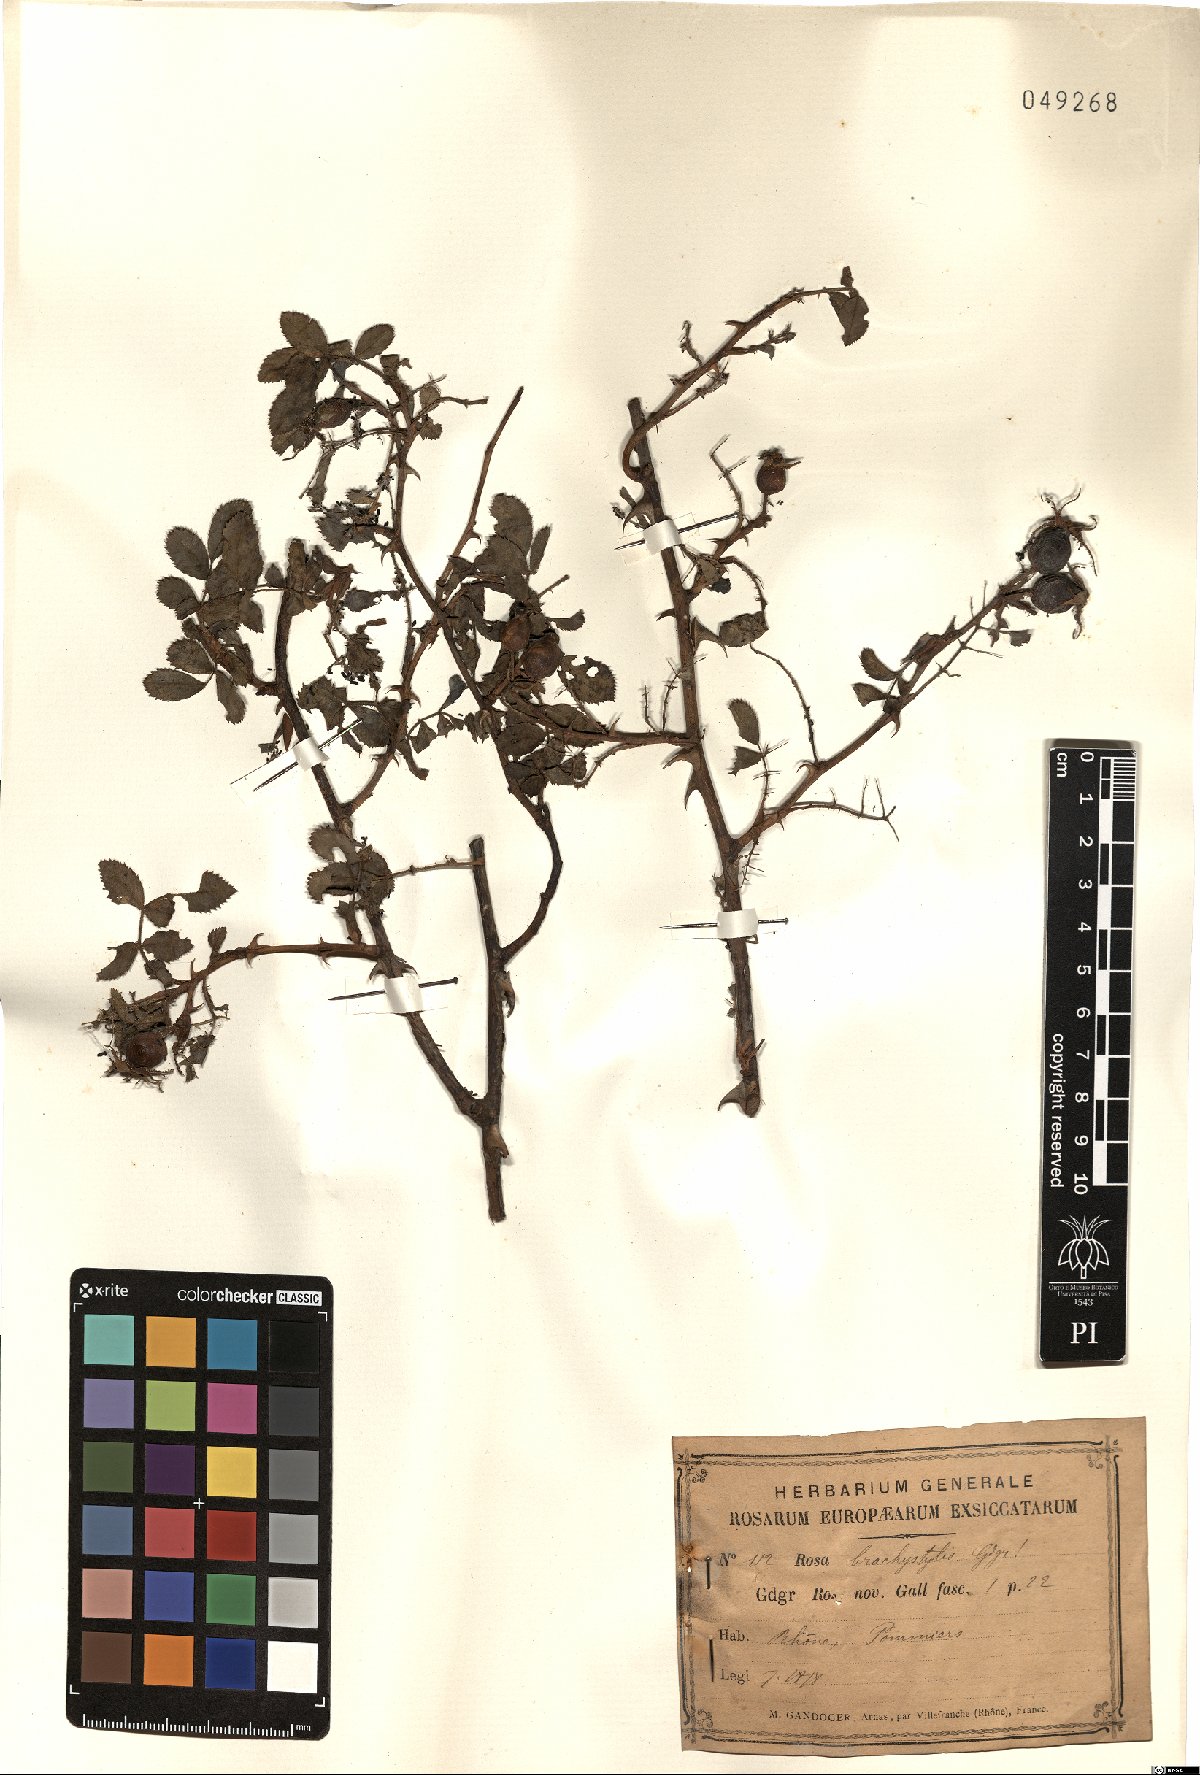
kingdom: Plantae
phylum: Tracheophyta
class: Magnoliopsida
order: Rosales
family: Rosaceae
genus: Rosa
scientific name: Rosa brachystylis
